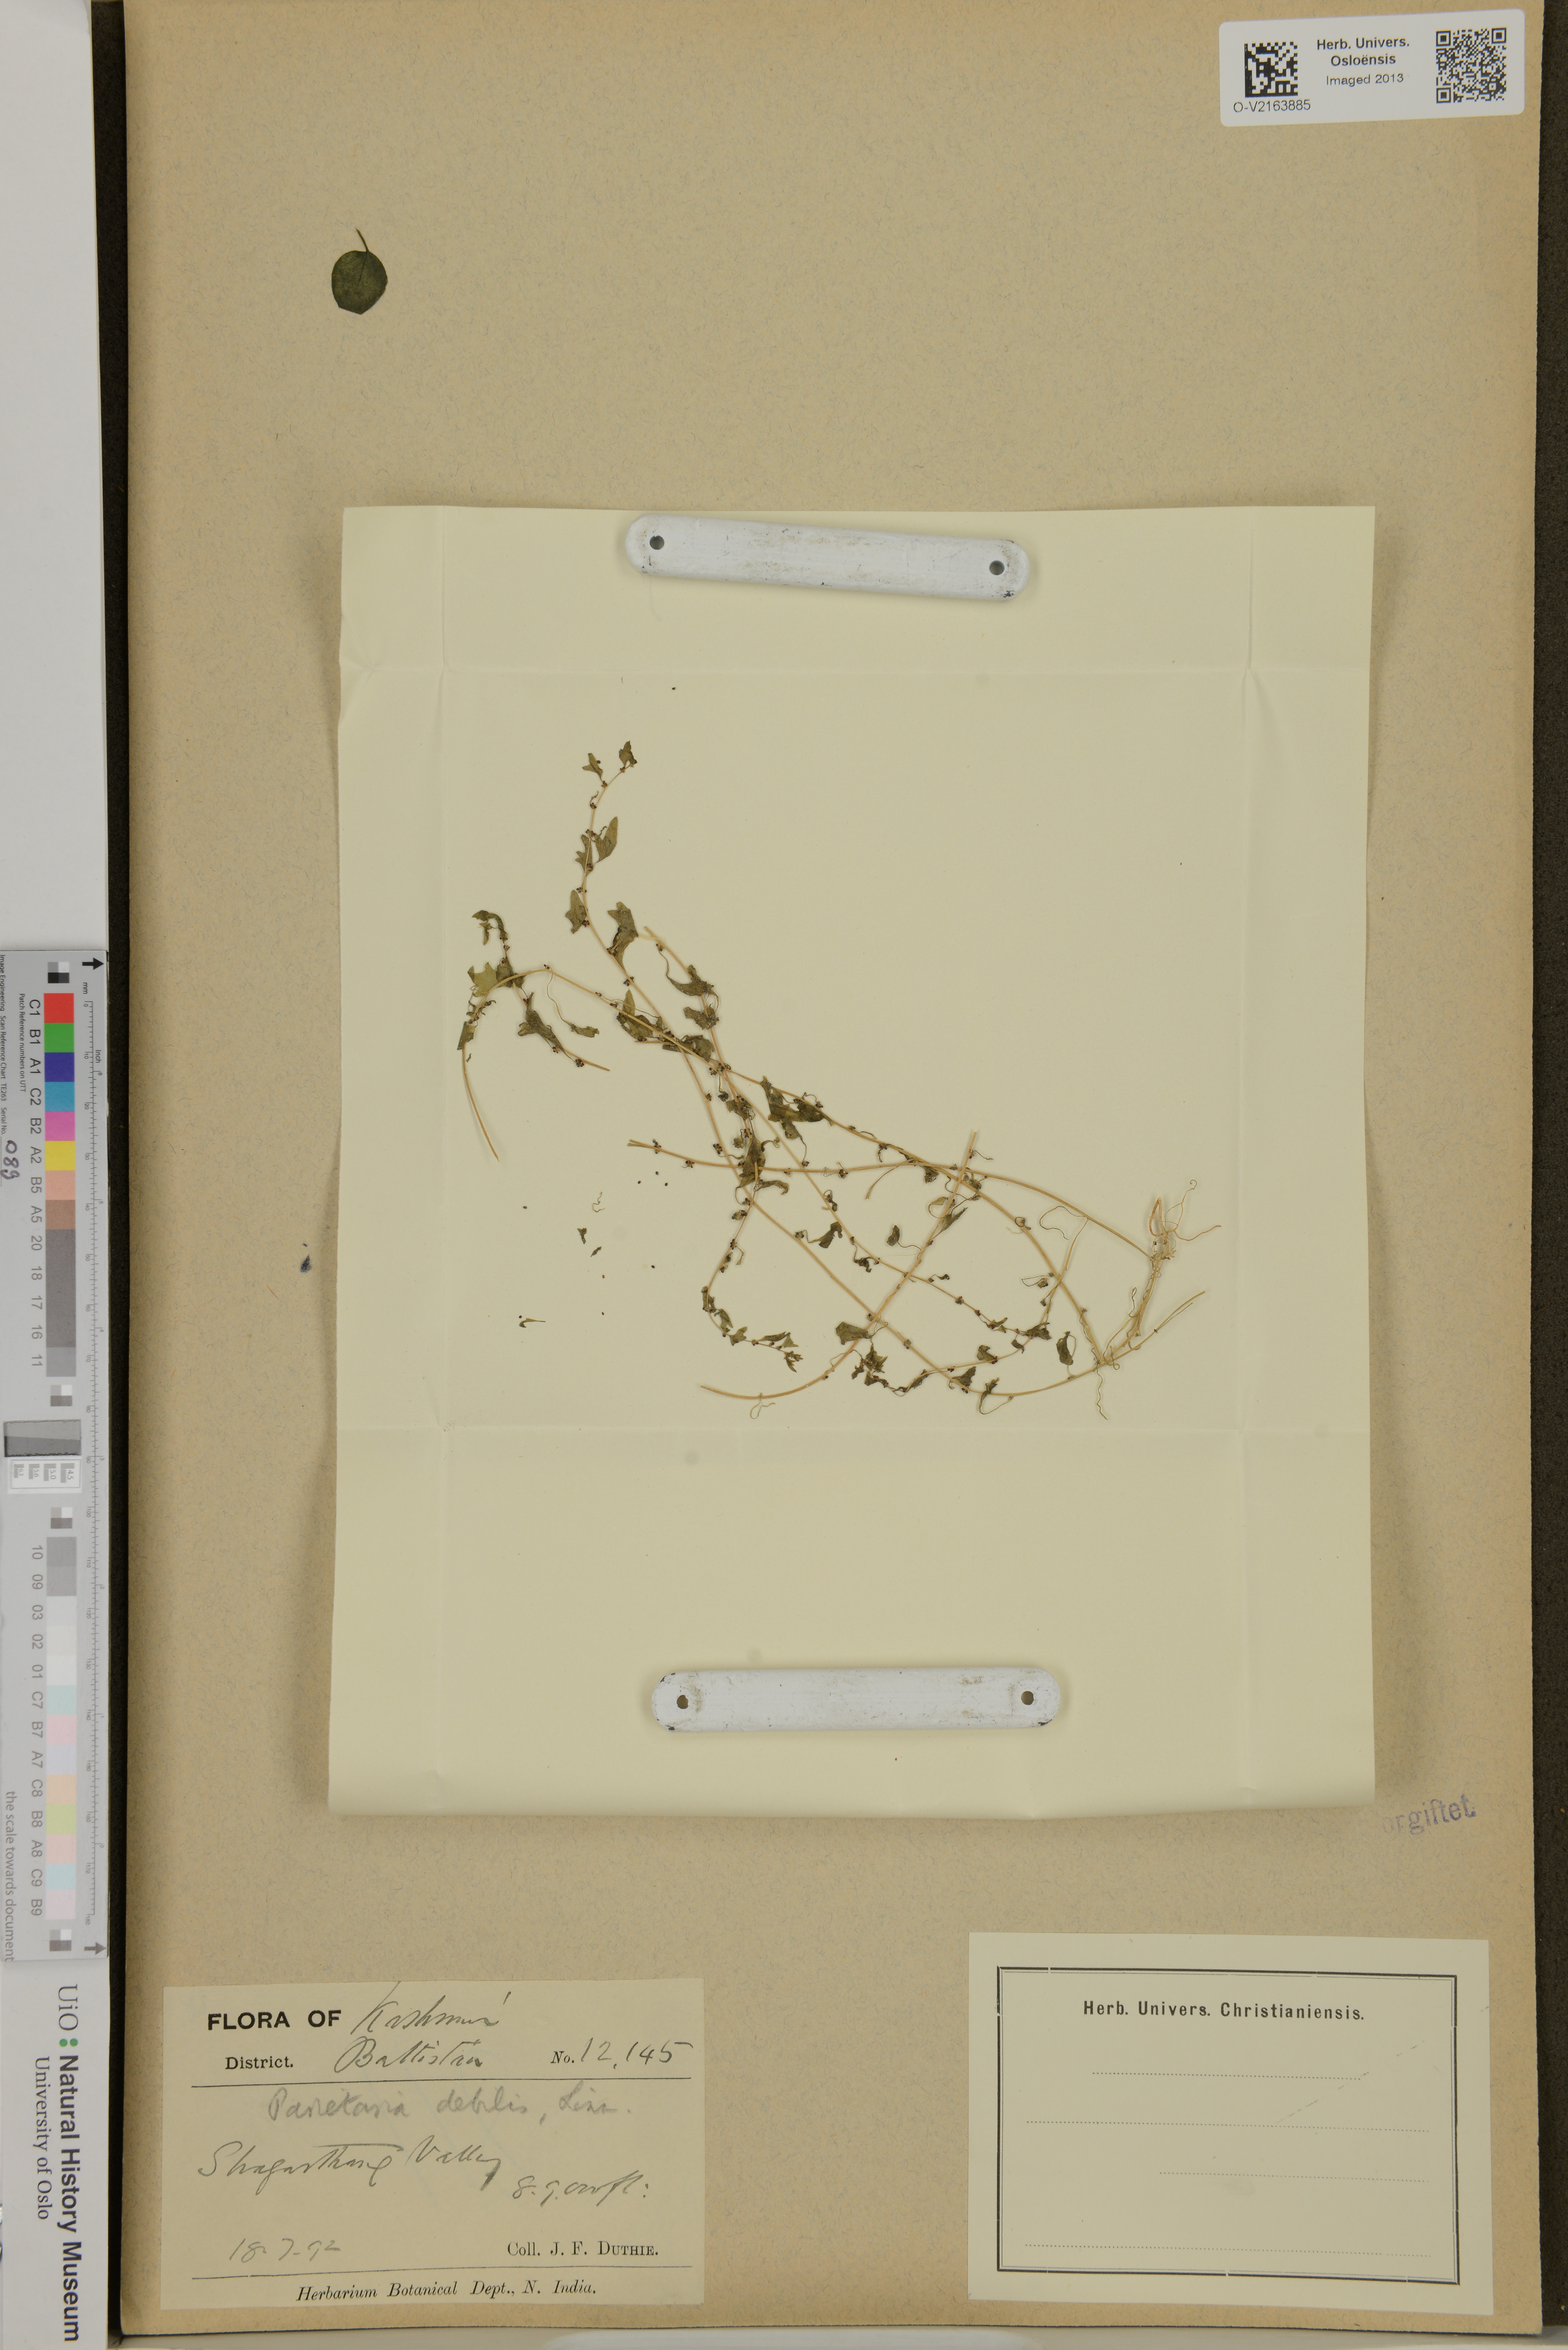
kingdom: Plantae
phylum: Tracheophyta
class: Magnoliopsida
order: Rosales
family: Urticaceae
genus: Parietaria
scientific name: Parietaria debilis
